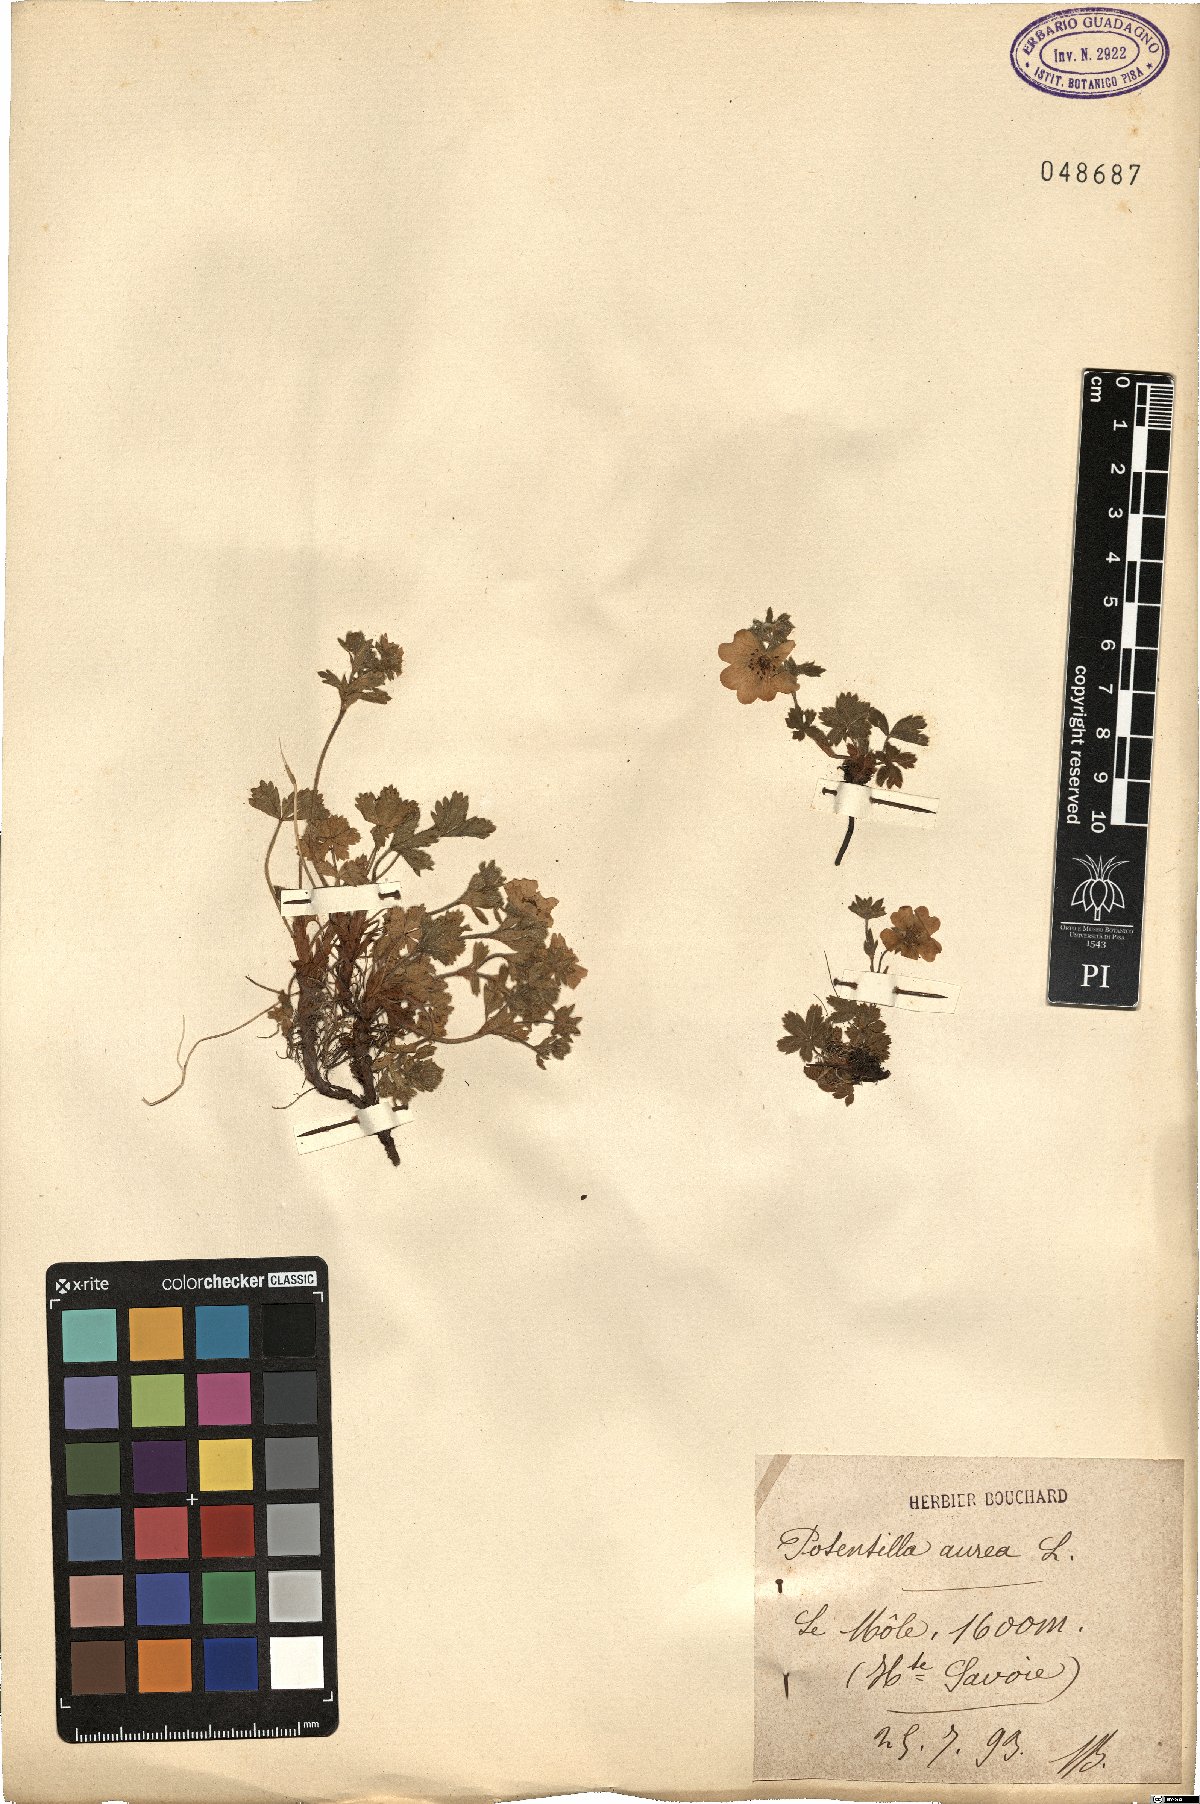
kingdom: Plantae
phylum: Tracheophyta
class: Magnoliopsida
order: Rosales
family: Rosaceae
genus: Potentilla
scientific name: Potentilla aurea
